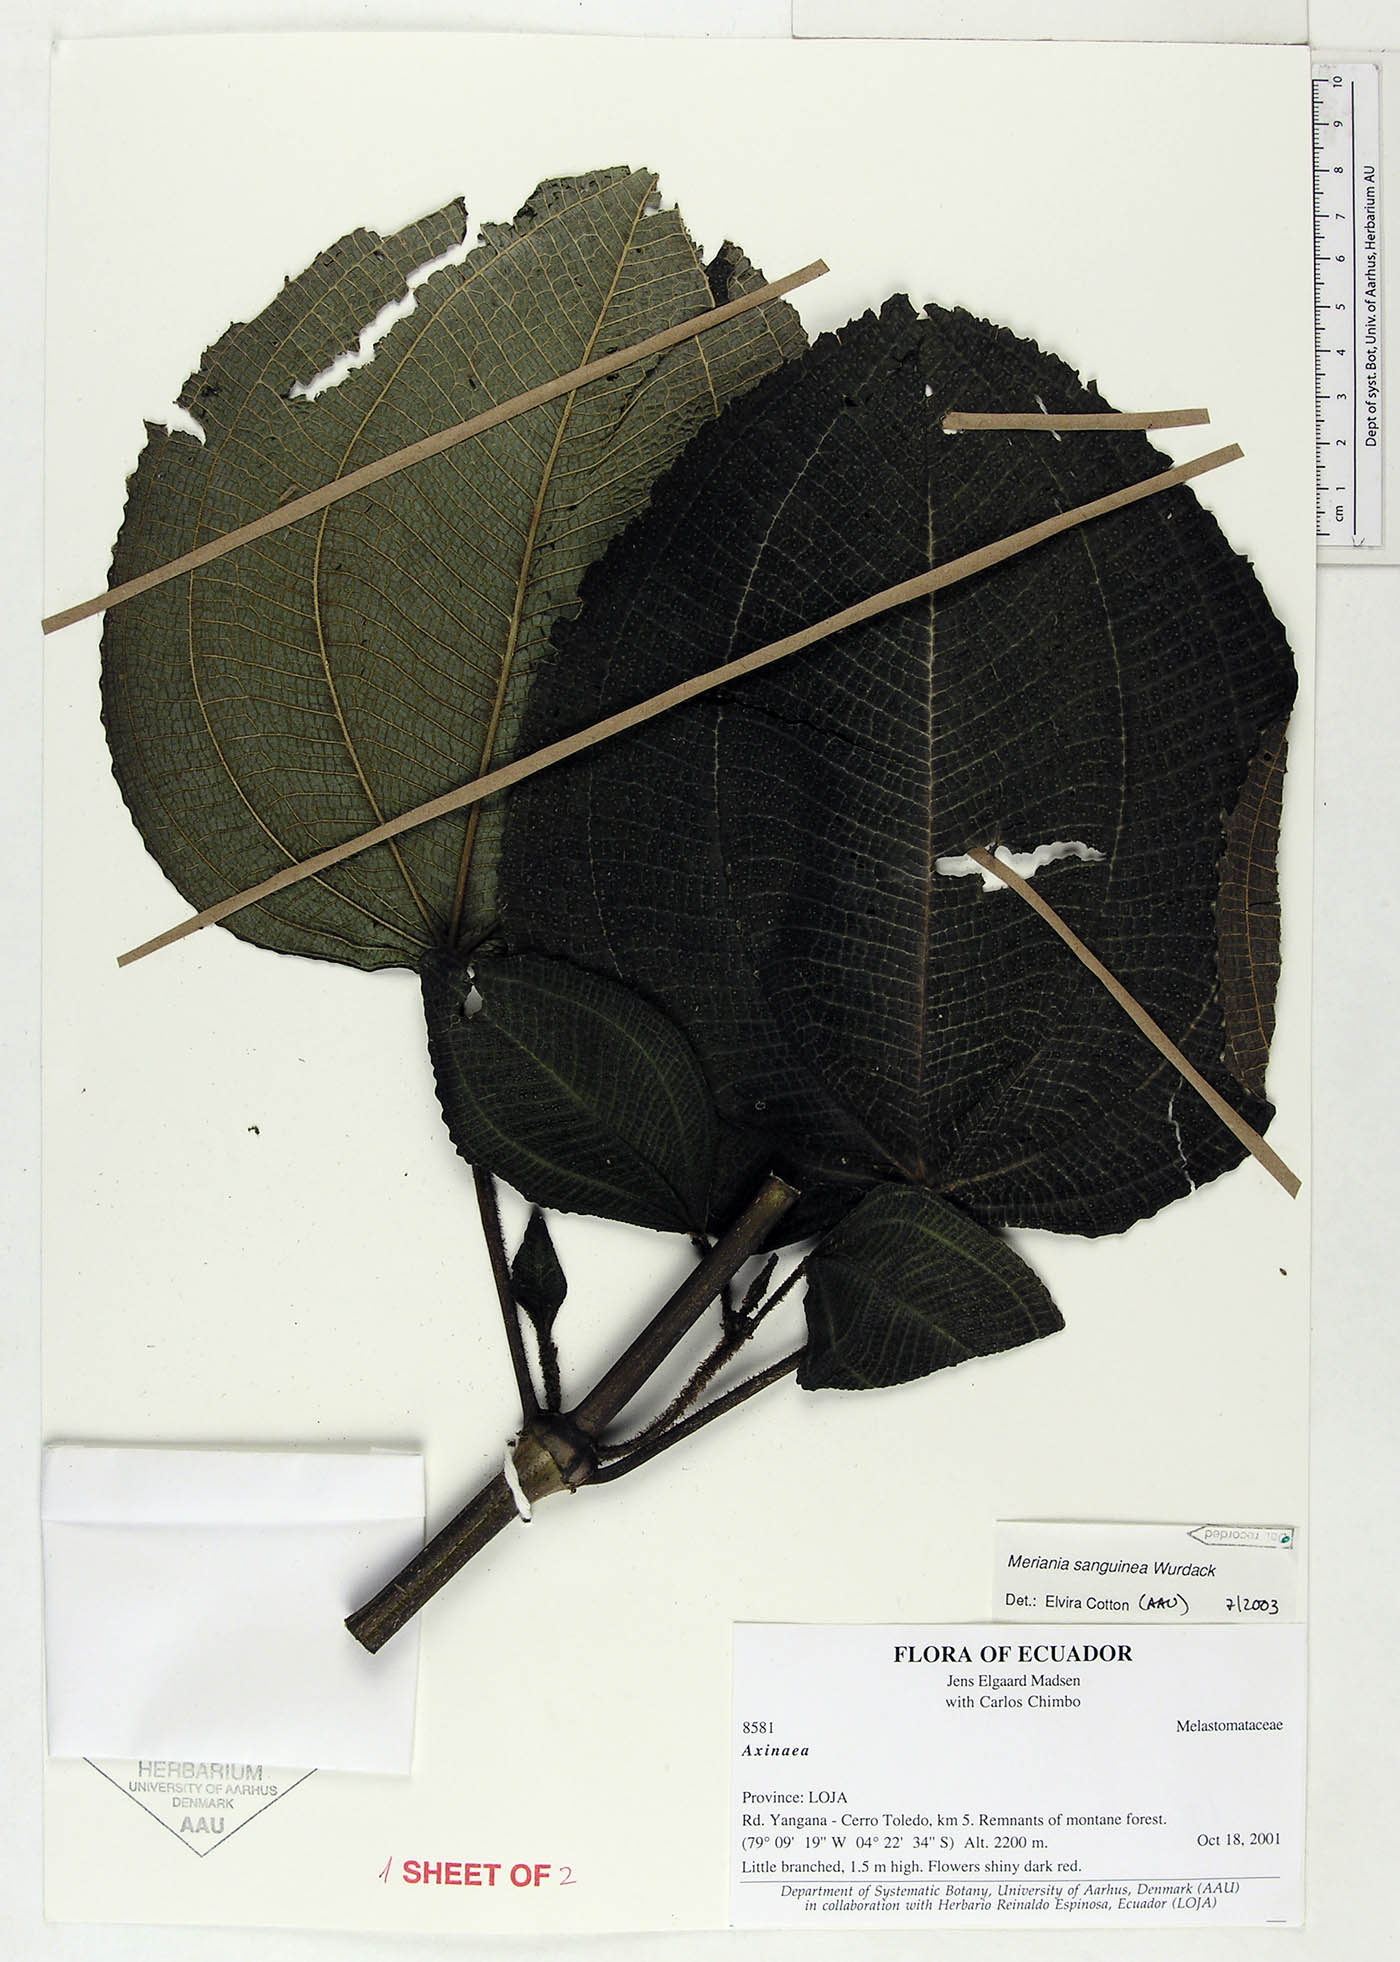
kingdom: Plantae
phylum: Tracheophyta
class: Magnoliopsida
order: Myrtales
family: Melastomataceae
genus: Meriania
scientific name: Meriania sanguinea
